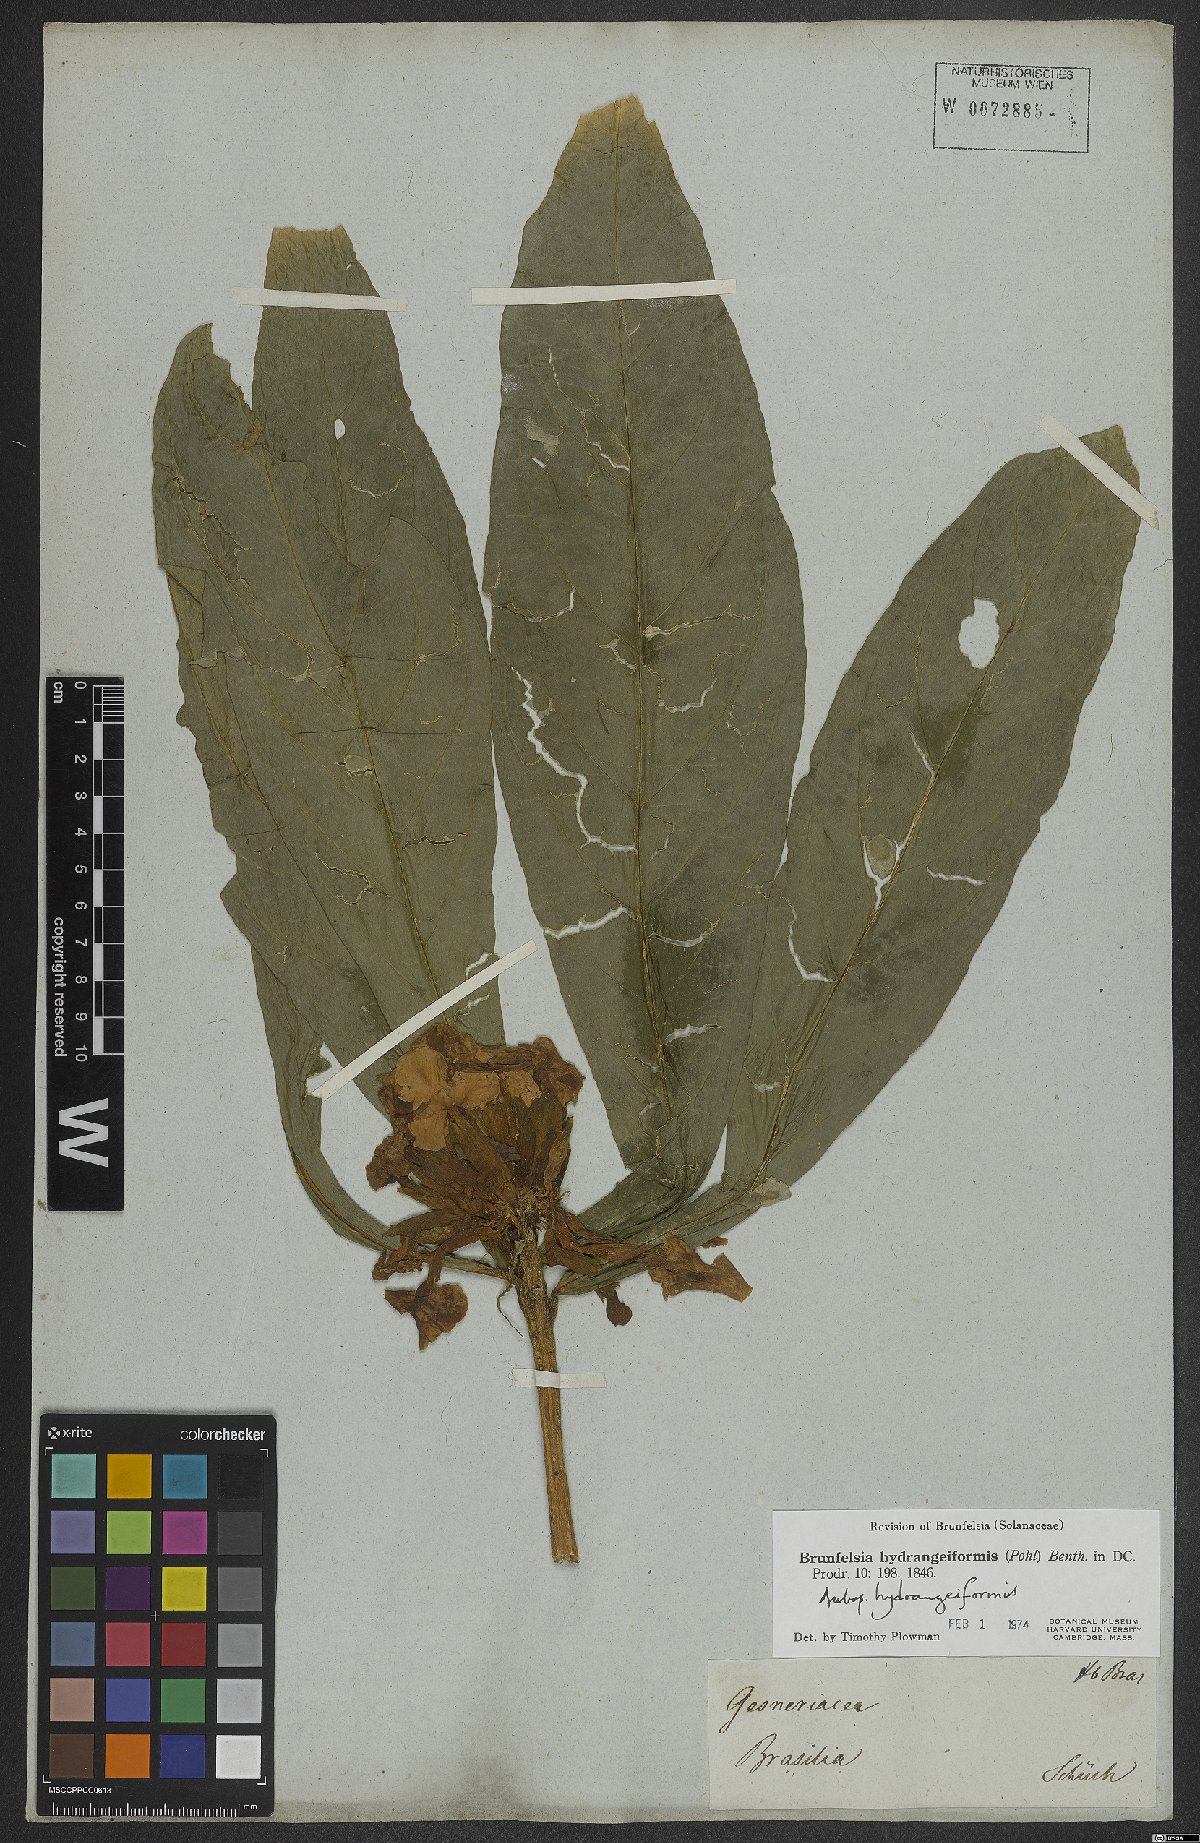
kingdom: Plantae
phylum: Tracheophyta
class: Magnoliopsida
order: Solanales
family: Solanaceae
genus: Brunfelsia
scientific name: Brunfelsia hydrangeiformis
